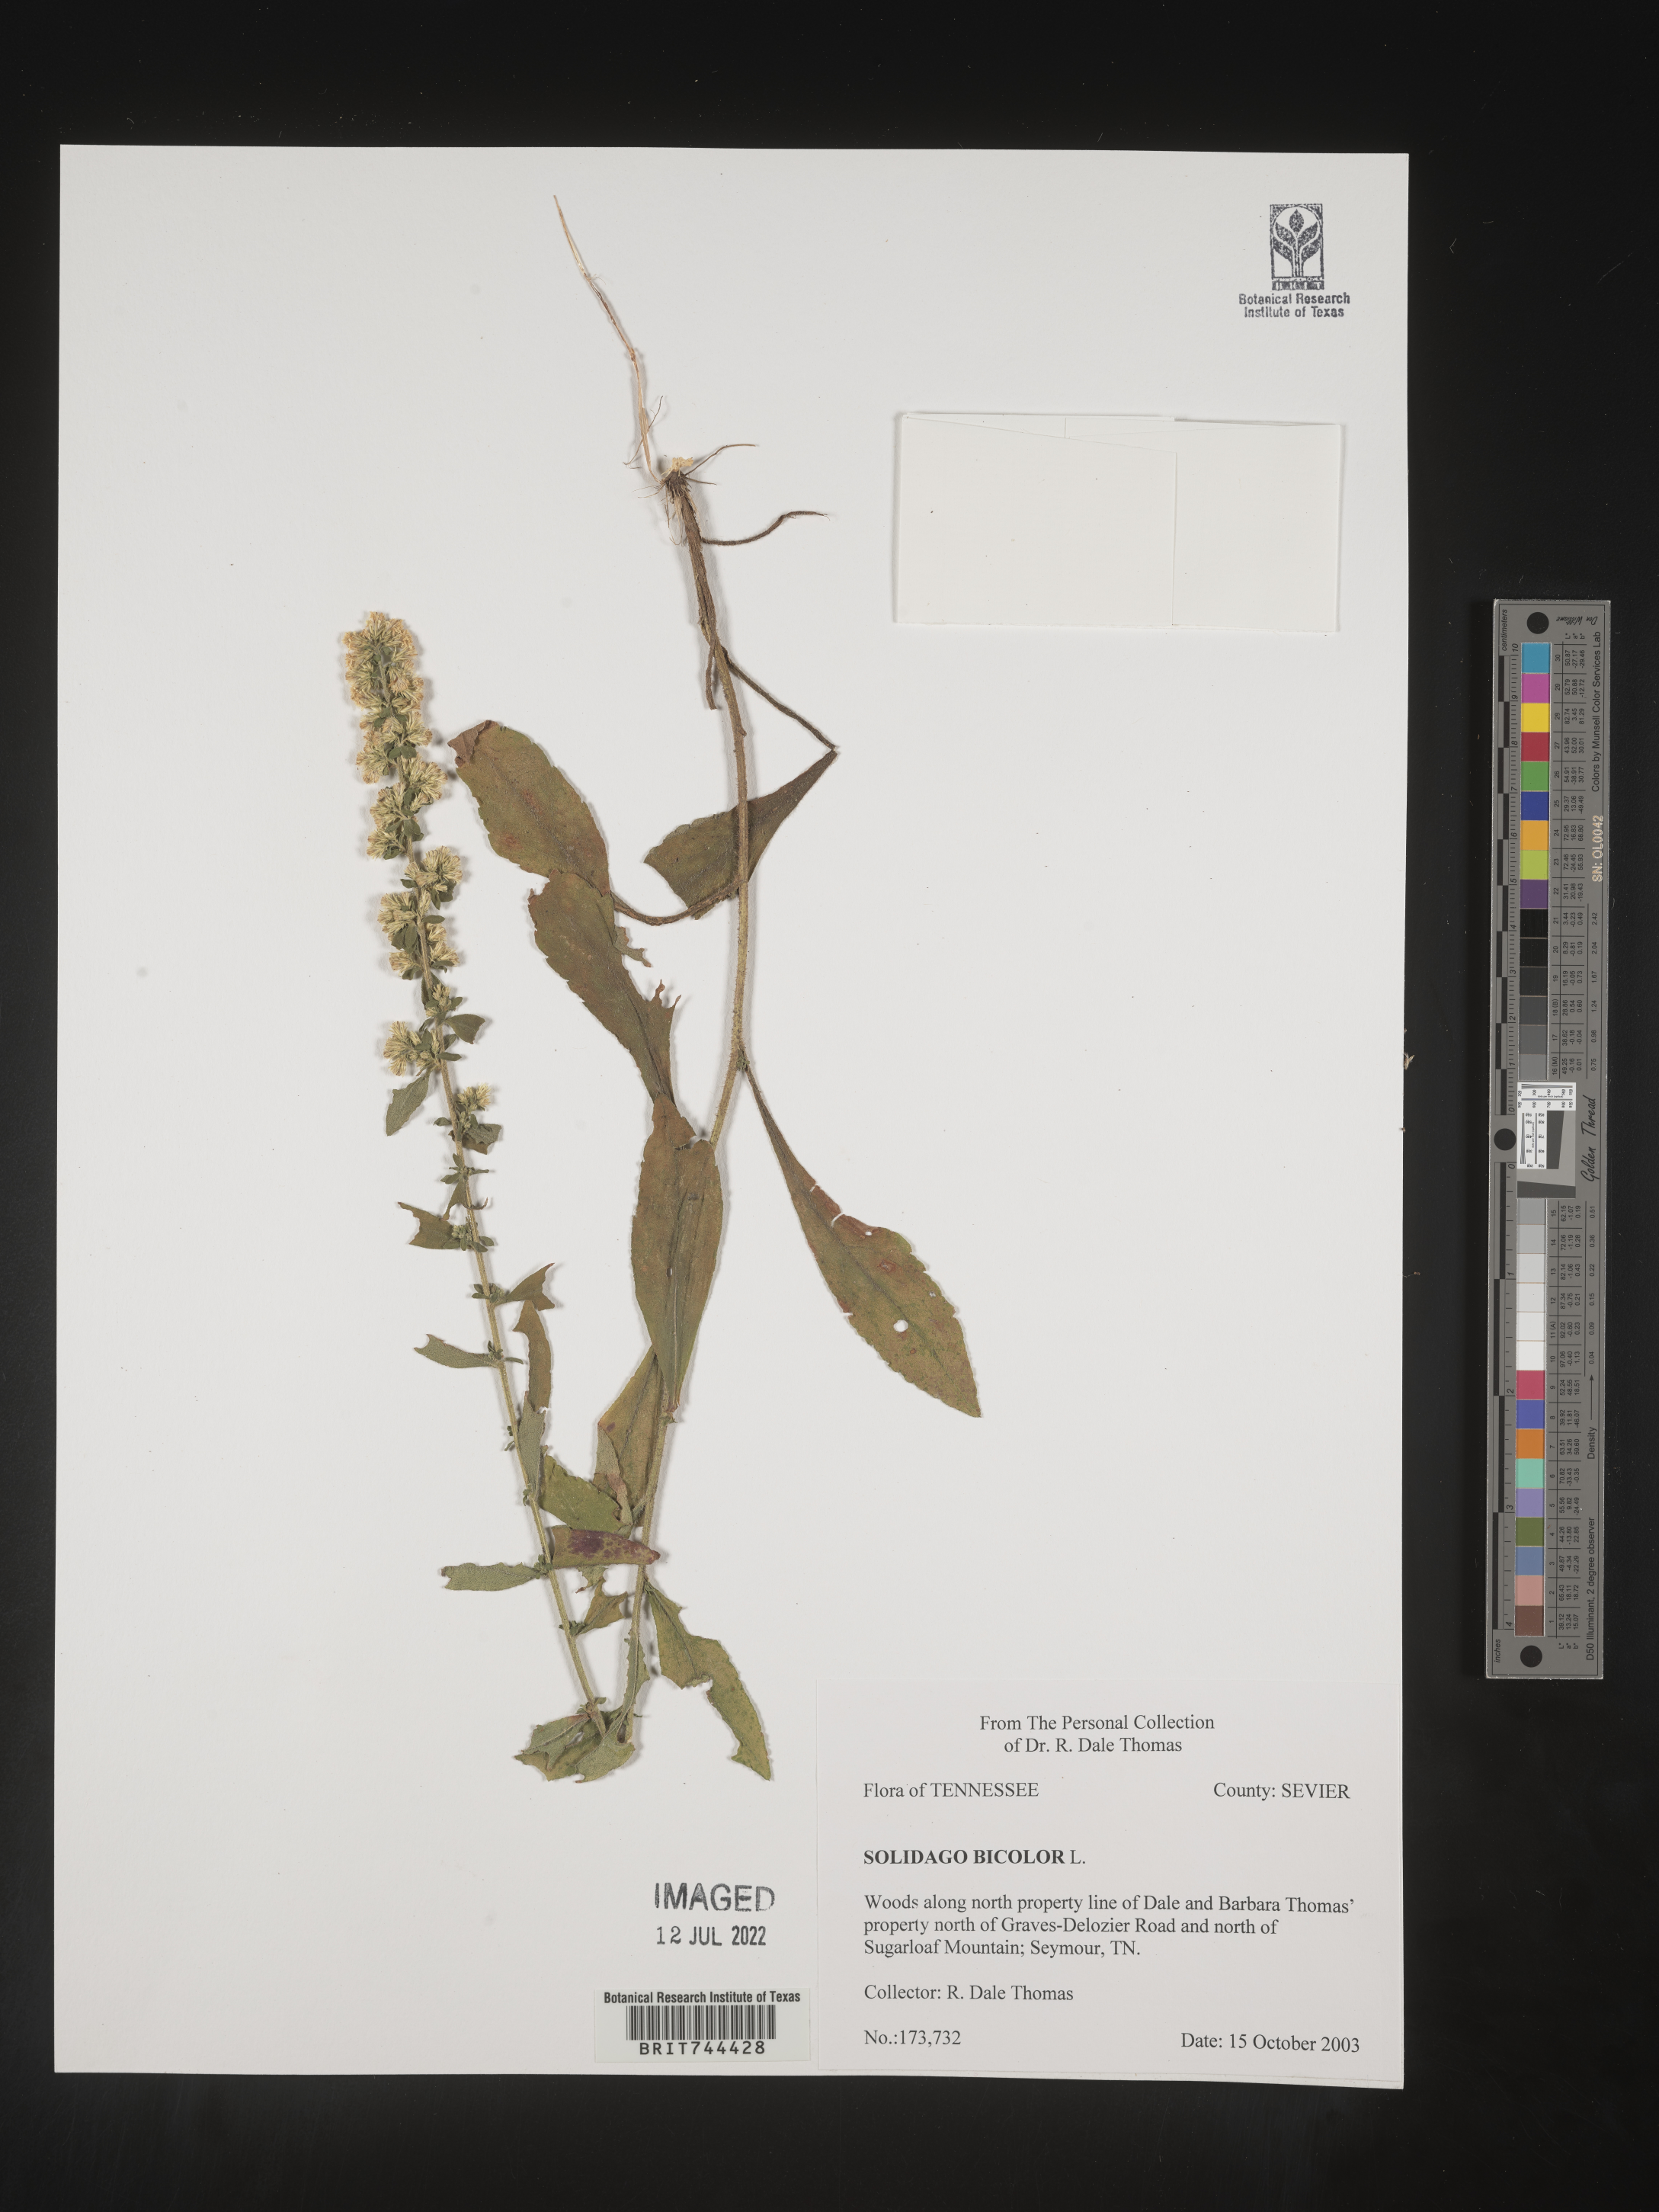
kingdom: Plantae
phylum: Tracheophyta
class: Magnoliopsida
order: Asterales
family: Asteraceae
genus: Solidago
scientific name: Solidago bicolor
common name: Silverrod
